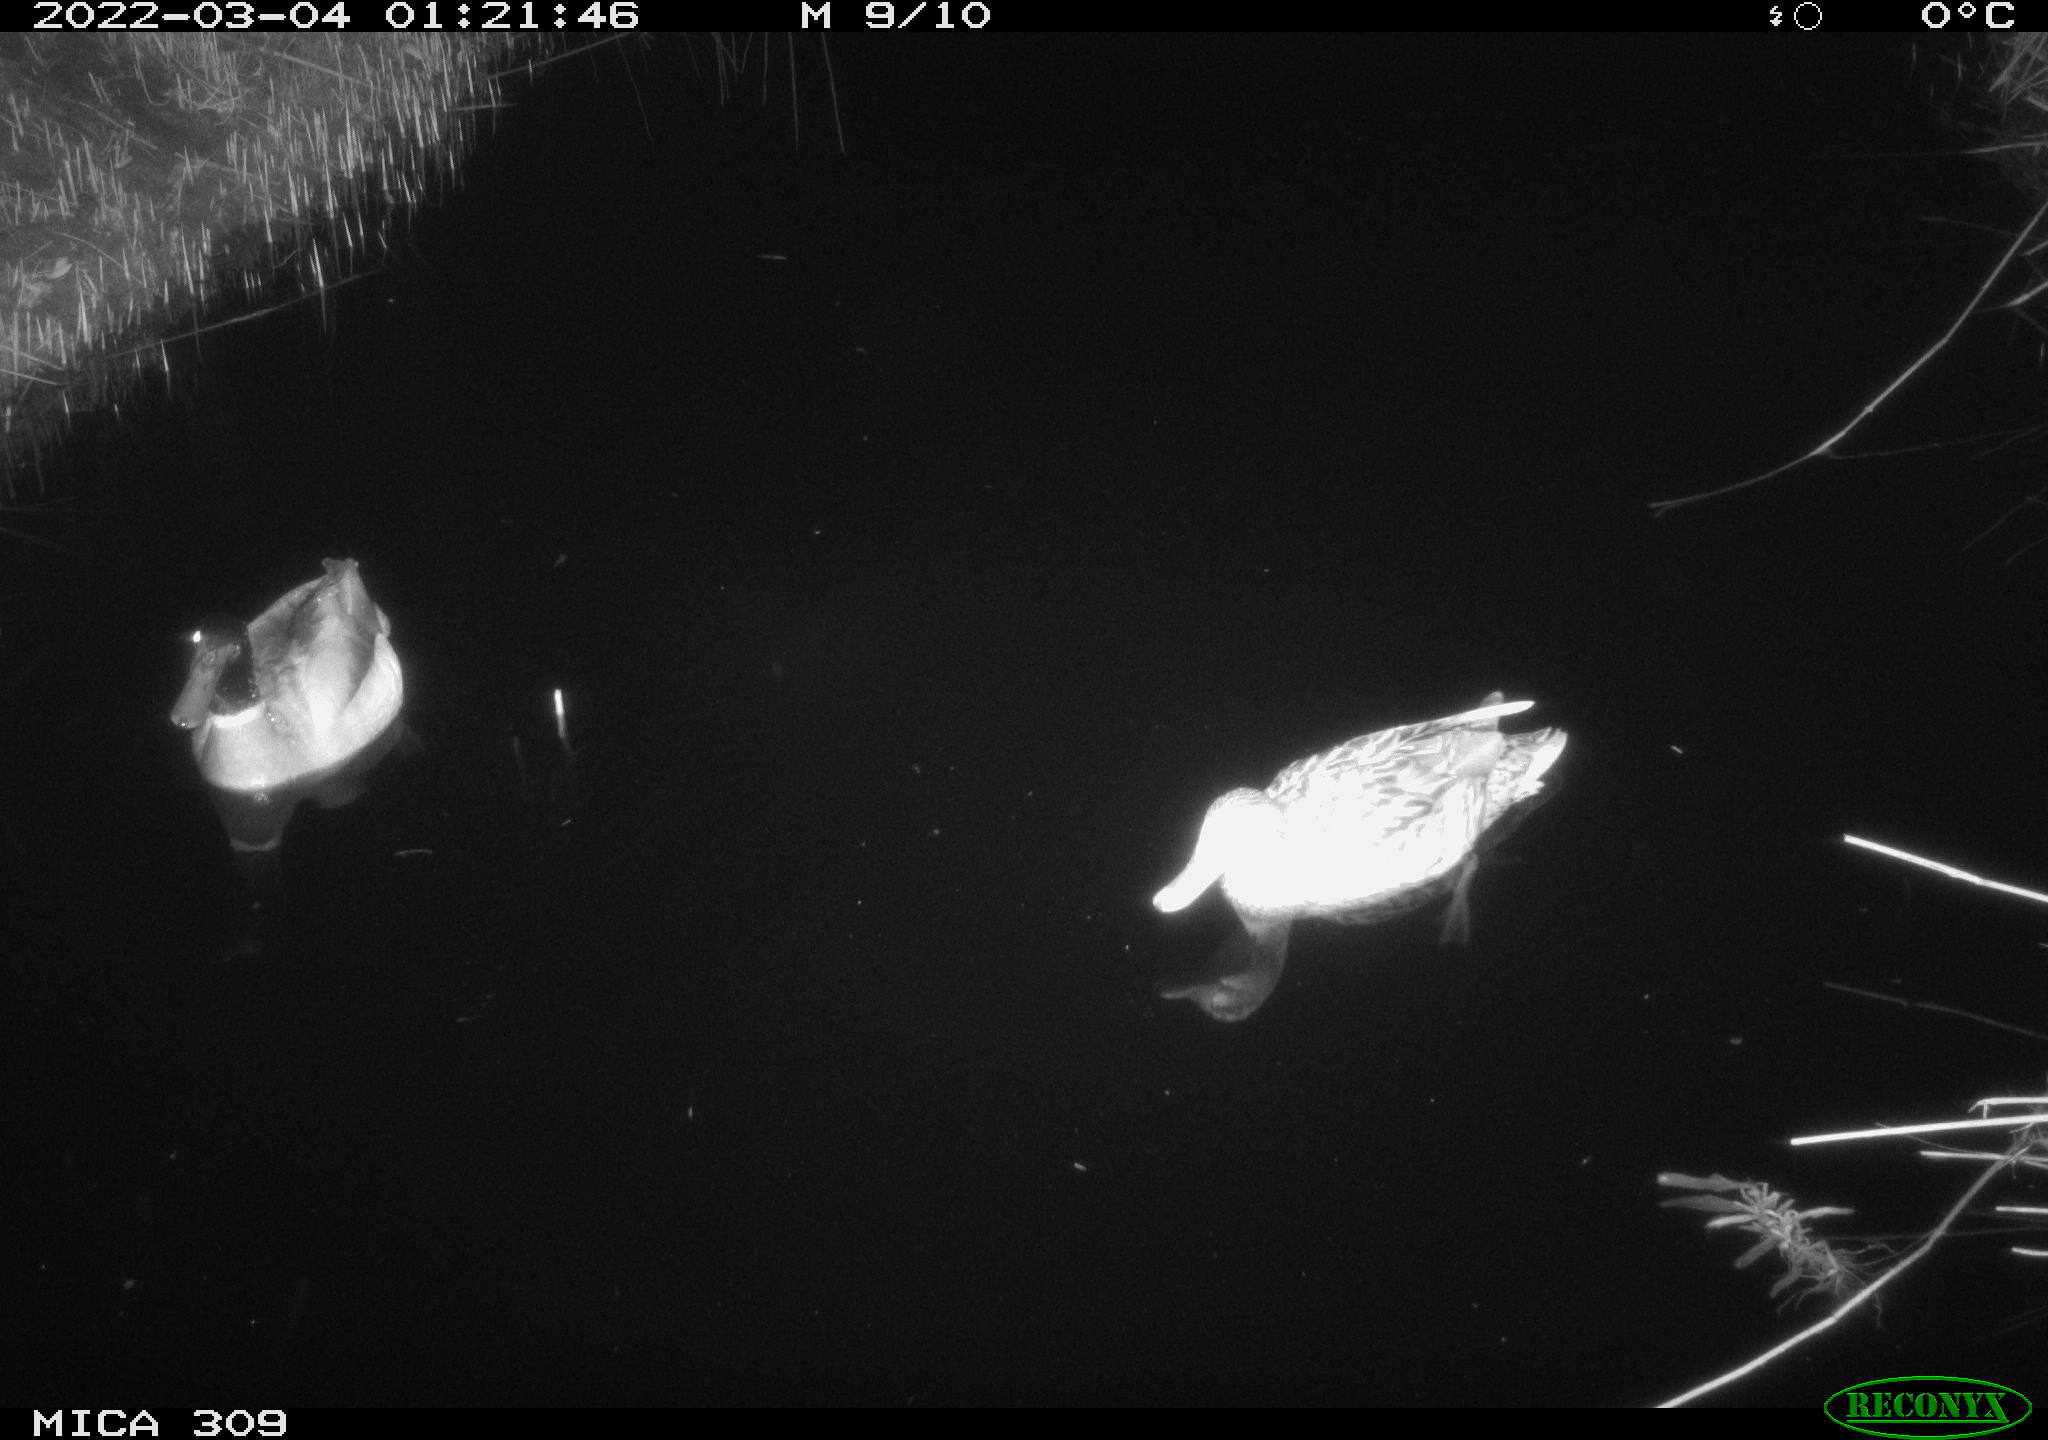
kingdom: Animalia
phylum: Chordata
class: Aves
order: Anseriformes
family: Anatidae
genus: Anas
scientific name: Anas platyrhynchos
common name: Mallard
